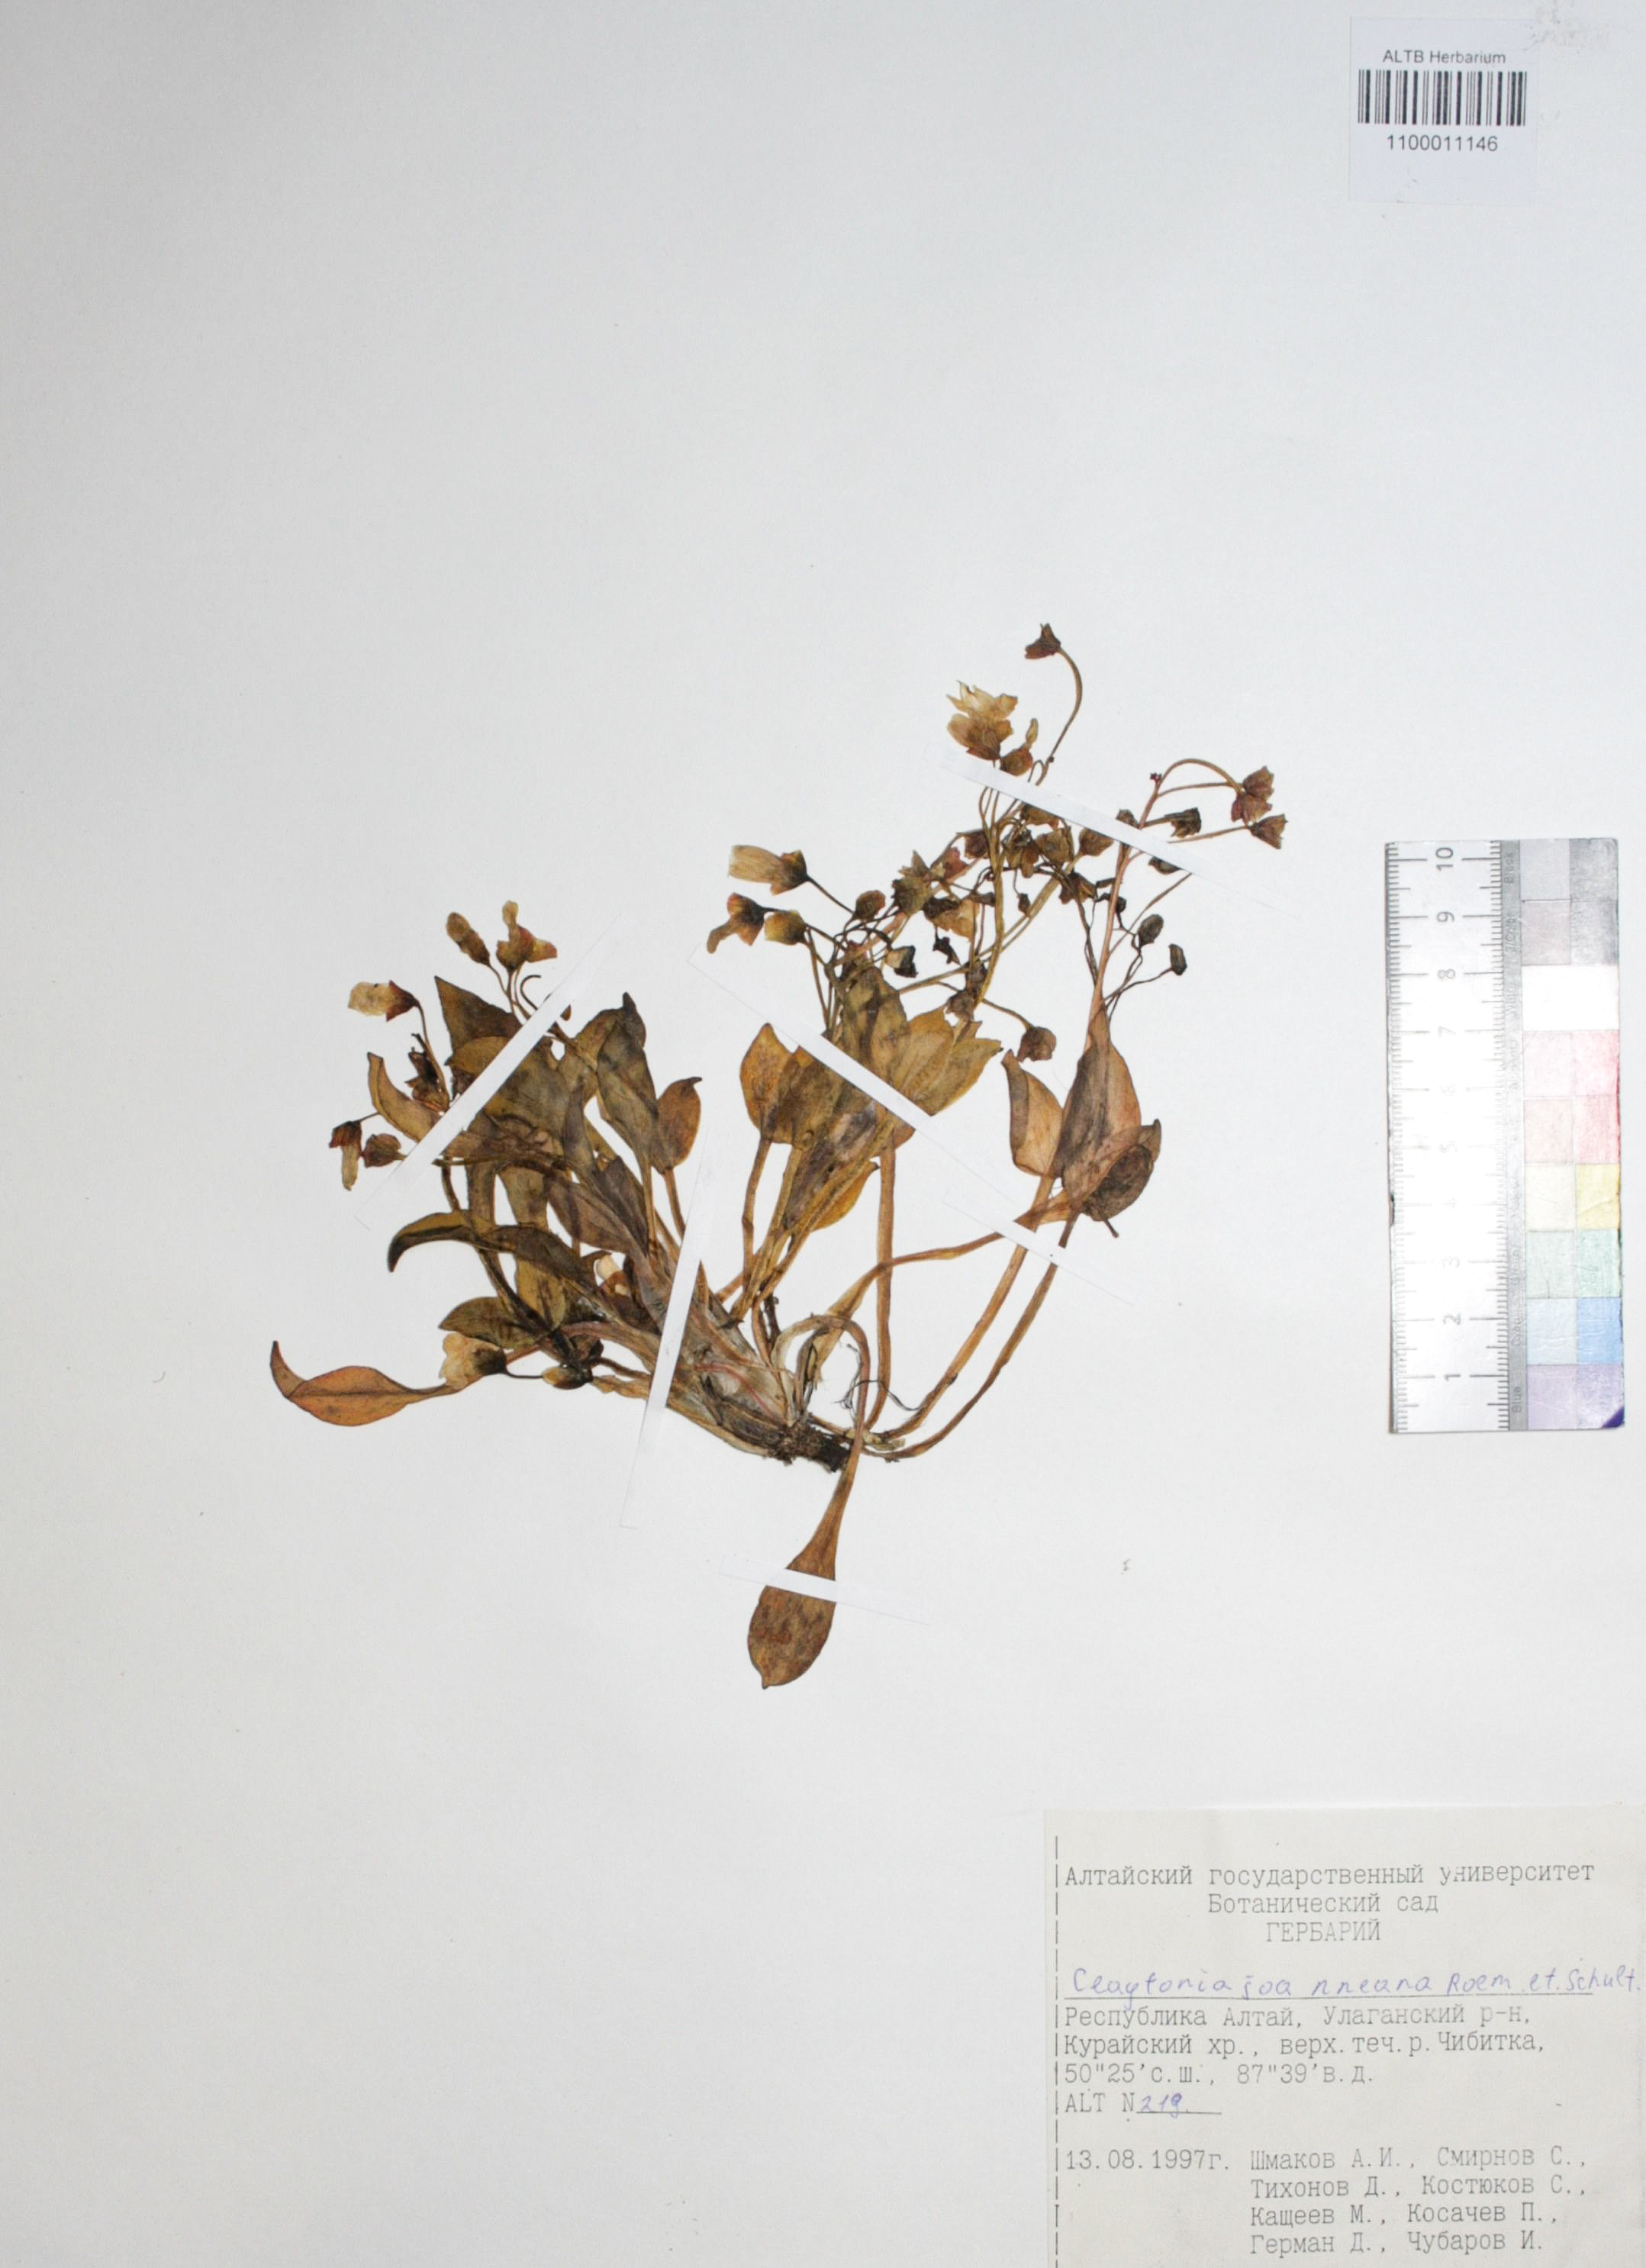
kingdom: Plantae
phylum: Tracheophyta
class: Magnoliopsida
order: Caryophyllales
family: Montiaceae
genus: Claytonia
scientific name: Claytonia joanneana
